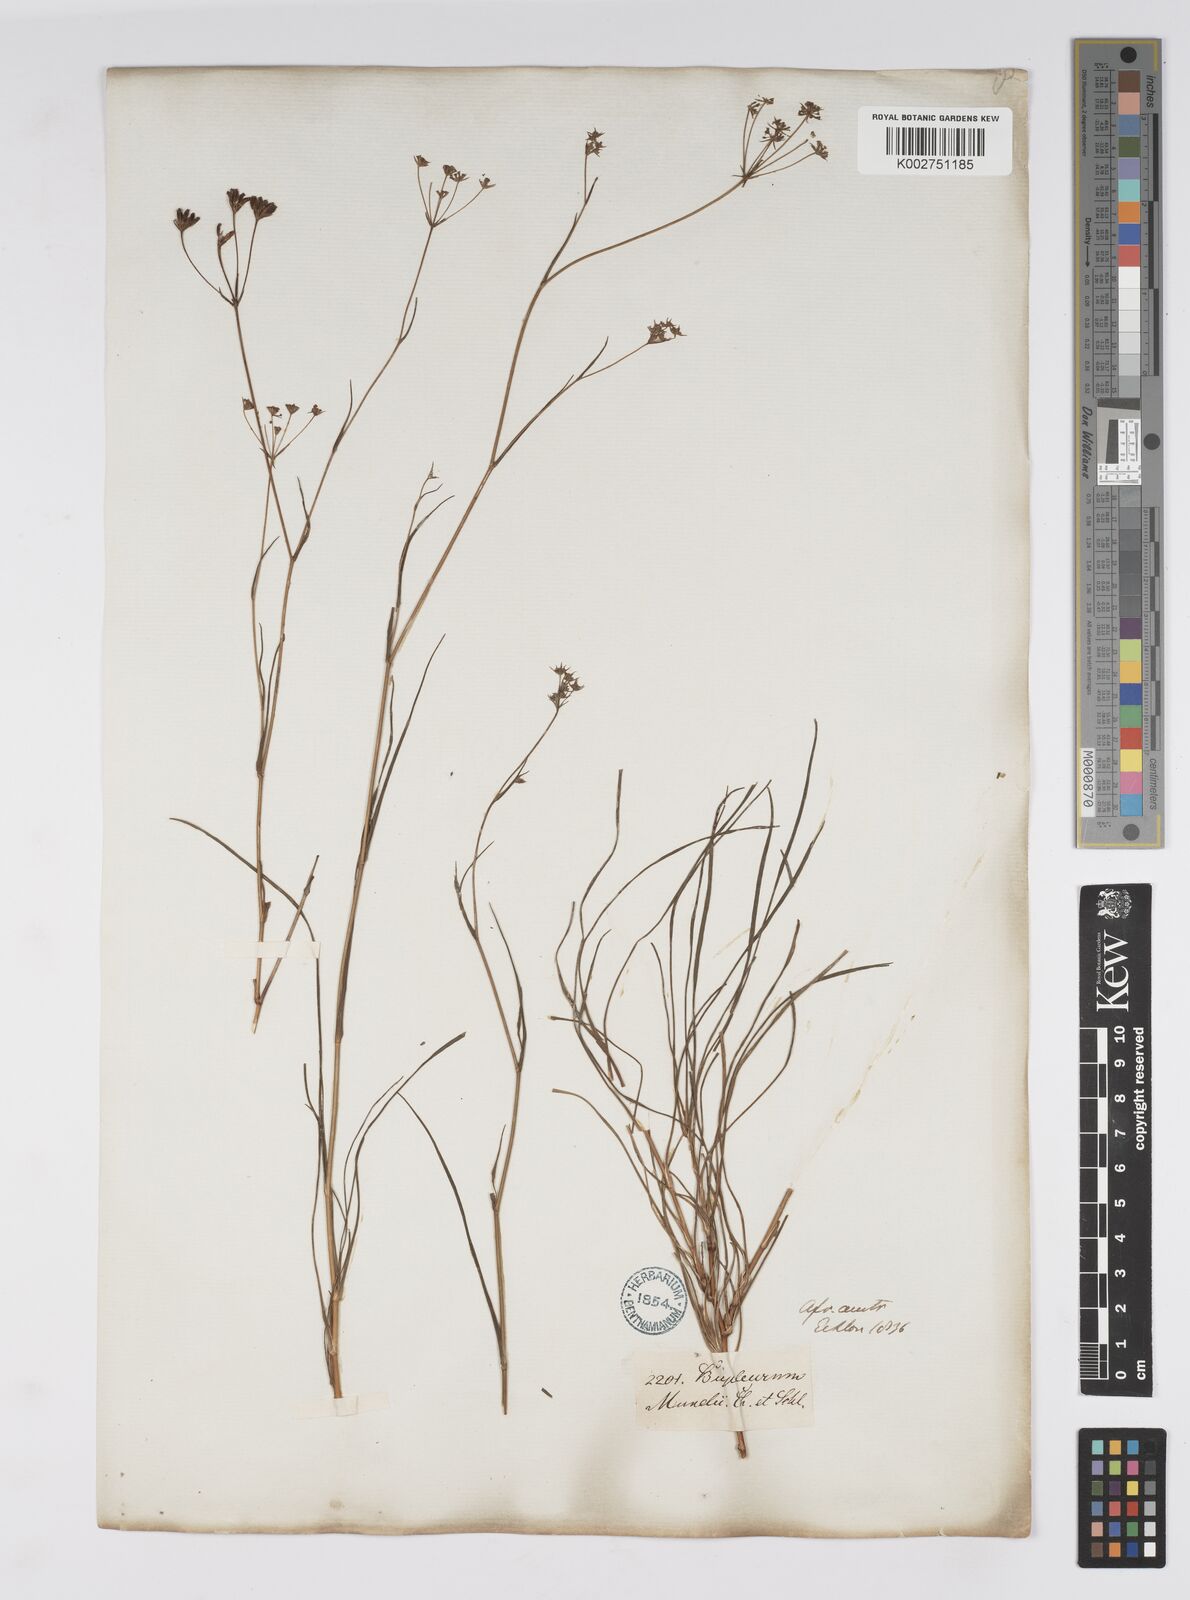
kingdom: Plantae
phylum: Tracheophyta
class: Magnoliopsida
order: Apiales
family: Apiaceae
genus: Bupleurum
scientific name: Bupleurum mundii
